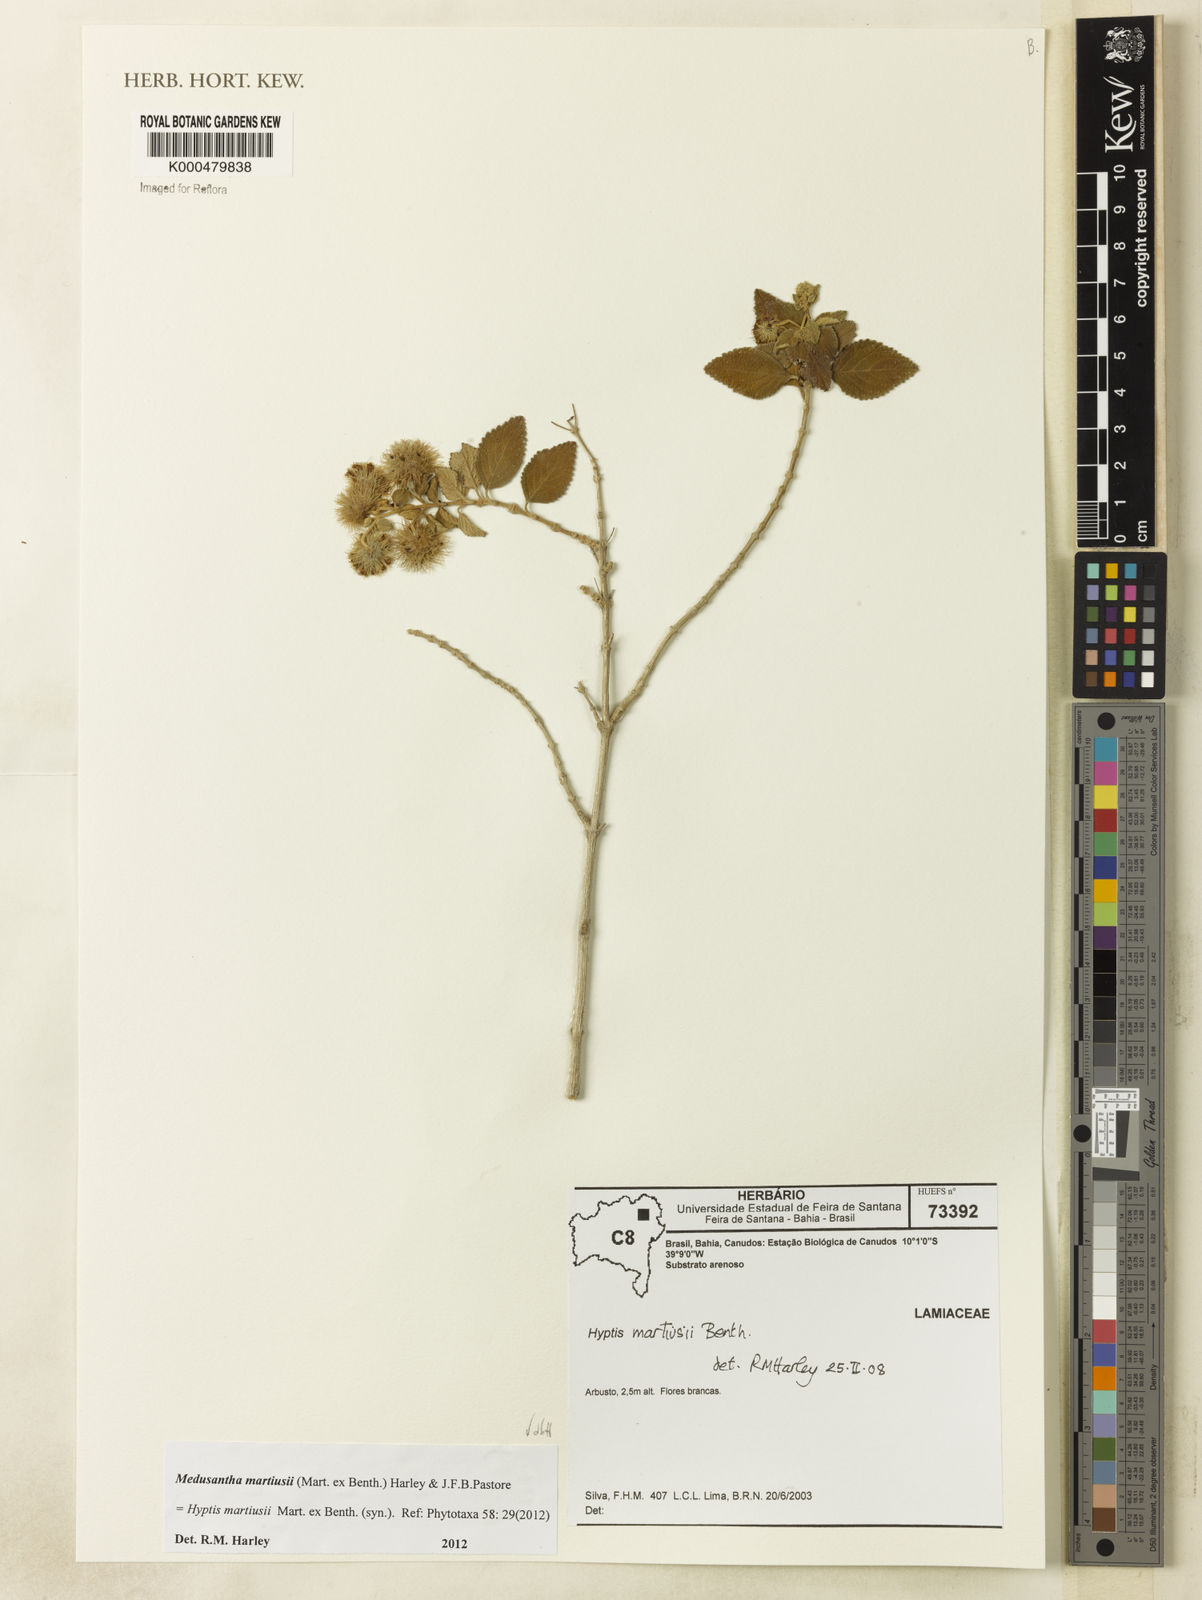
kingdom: Plantae
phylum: Tracheophyta
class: Magnoliopsida
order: Lamiales
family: Lamiaceae
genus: Medusantha
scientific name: Medusantha martiusii
